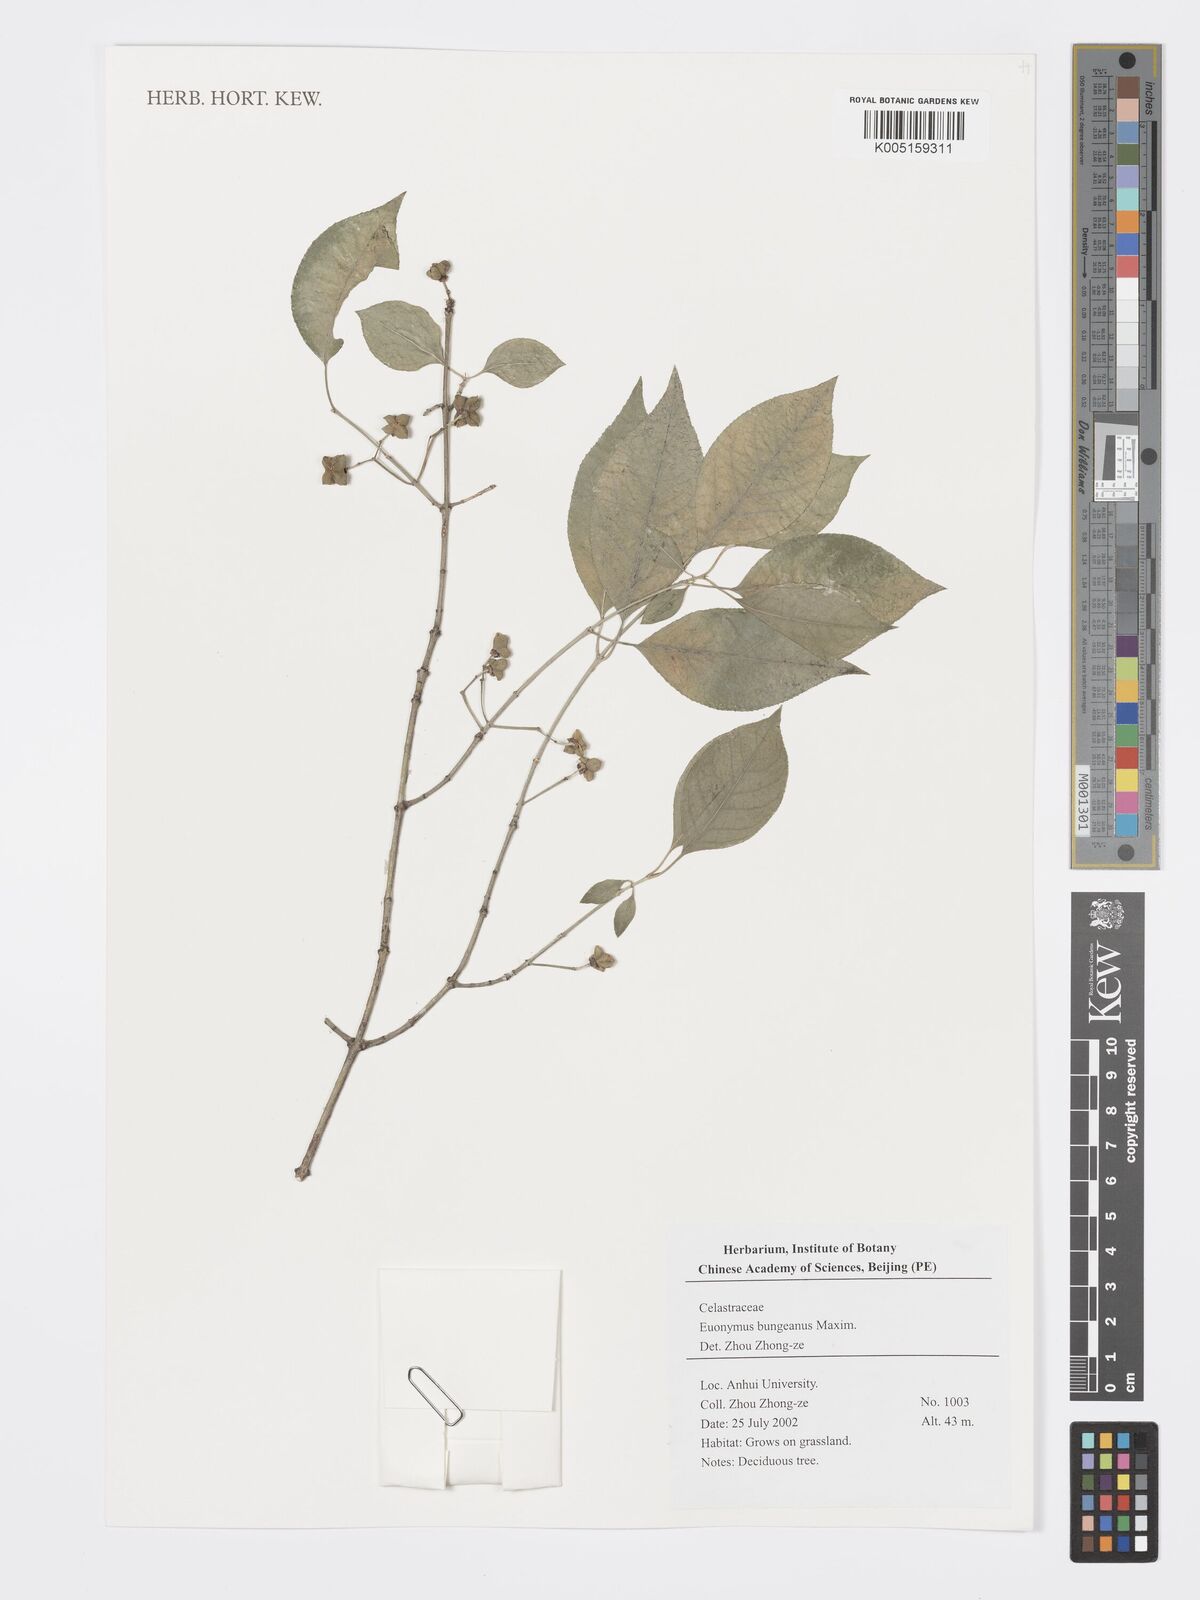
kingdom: Plantae
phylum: Tracheophyta
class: Magnoliopsida
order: Celastrales
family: Celastraceae
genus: Euonymus
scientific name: Euonymus maackii
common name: Hamilton's spindletree
